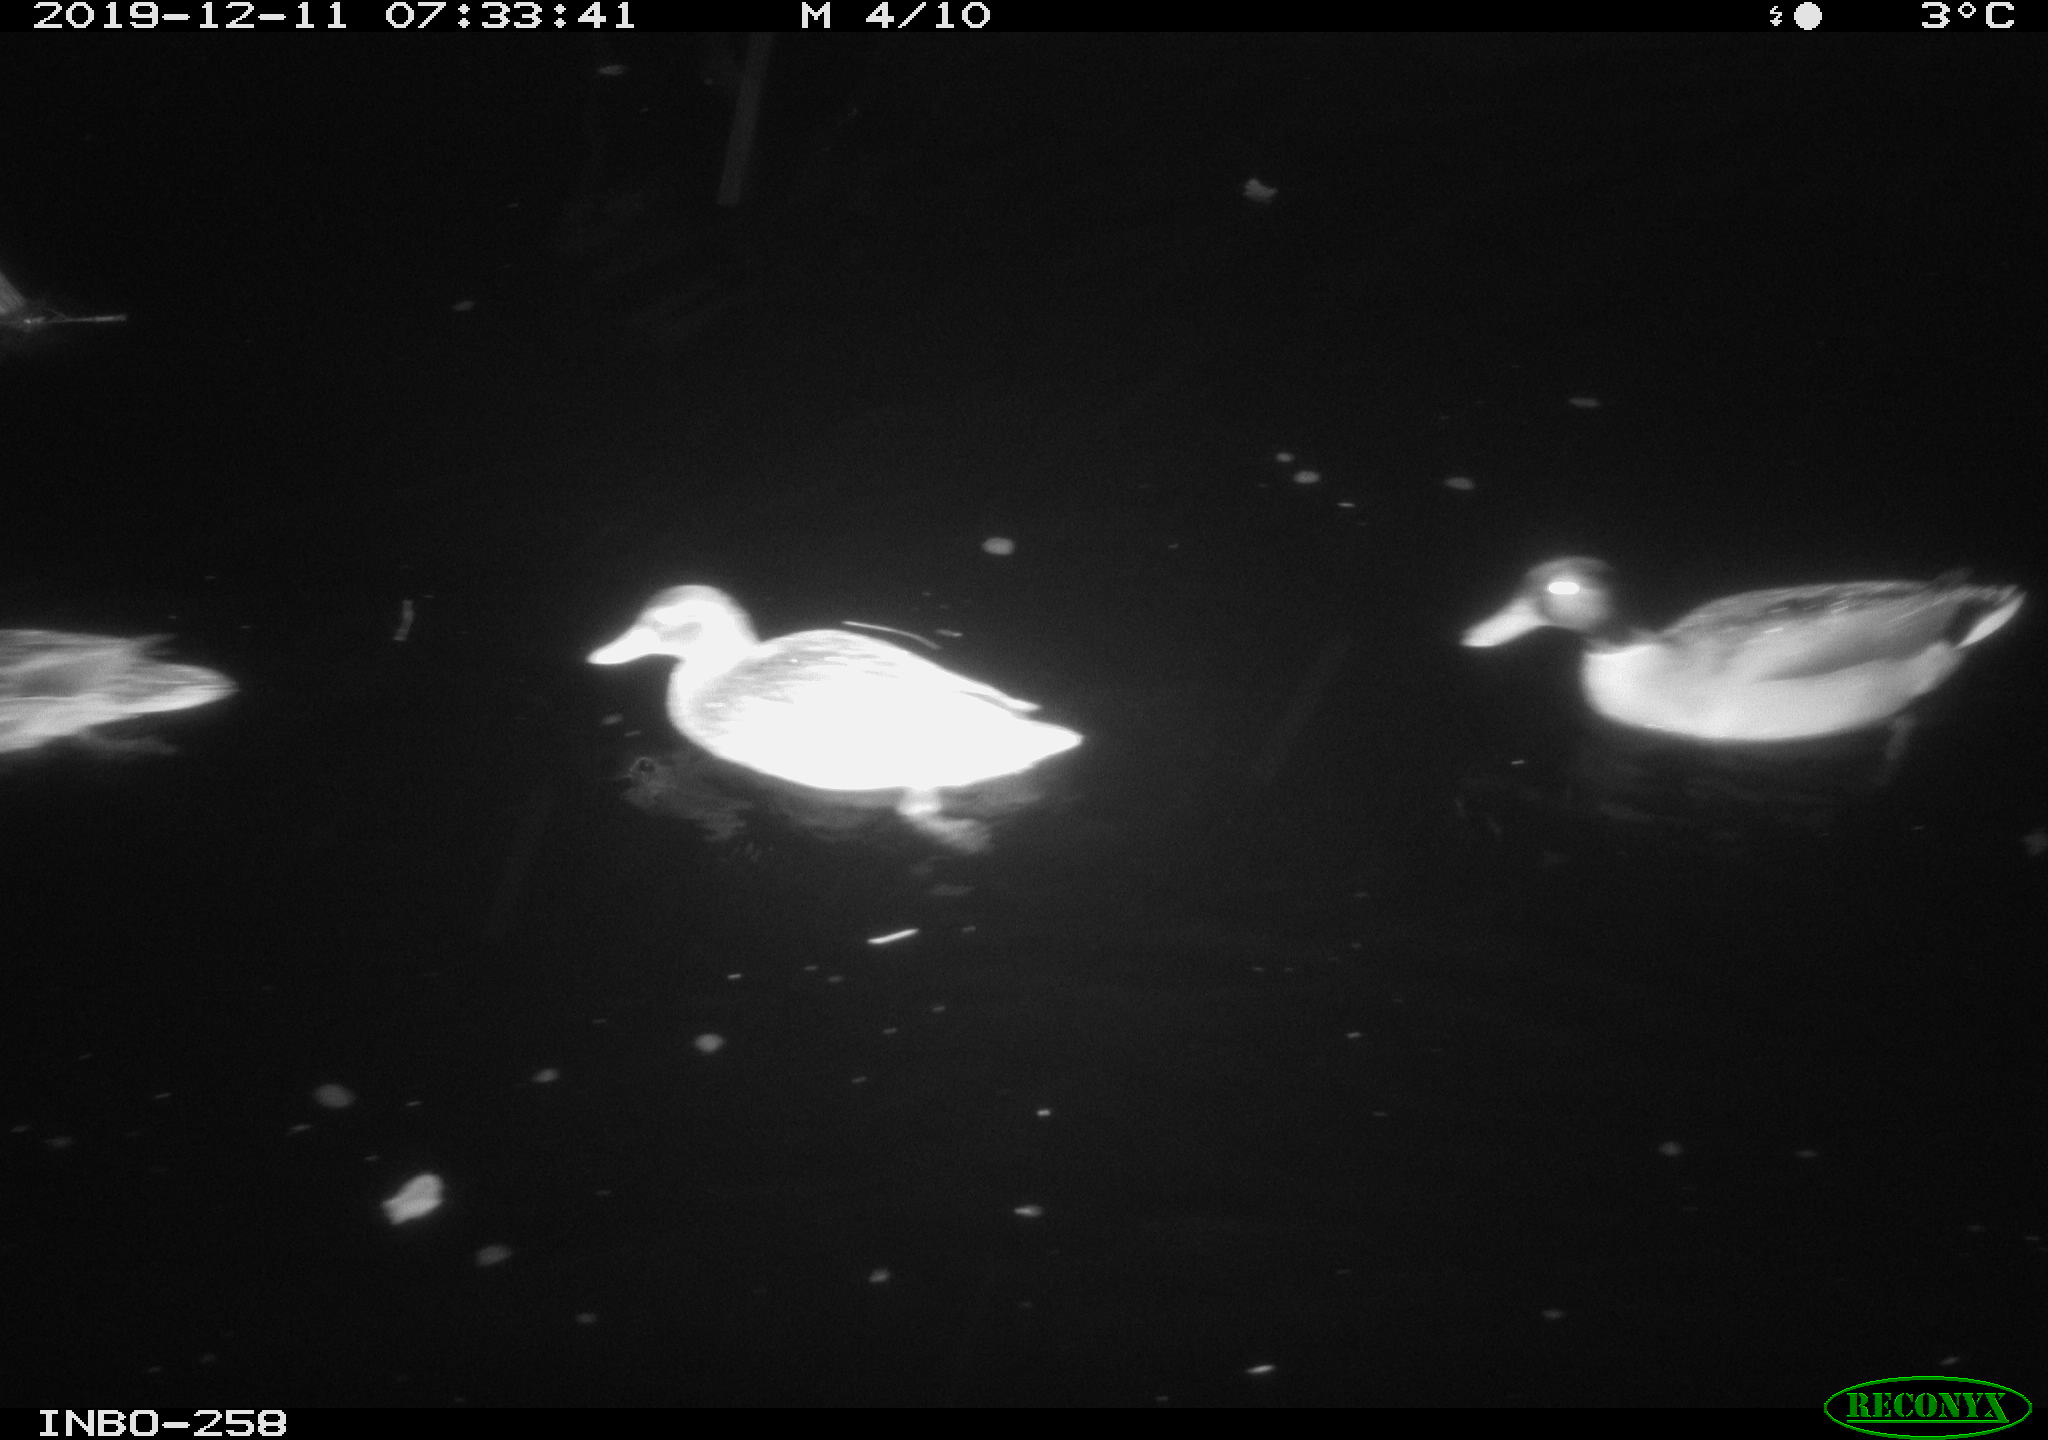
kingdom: Animalia
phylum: Chordata
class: Aves
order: Anseriformes
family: Anatidae
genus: Anas
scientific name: Anas platyrhynchos
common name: Mallard
